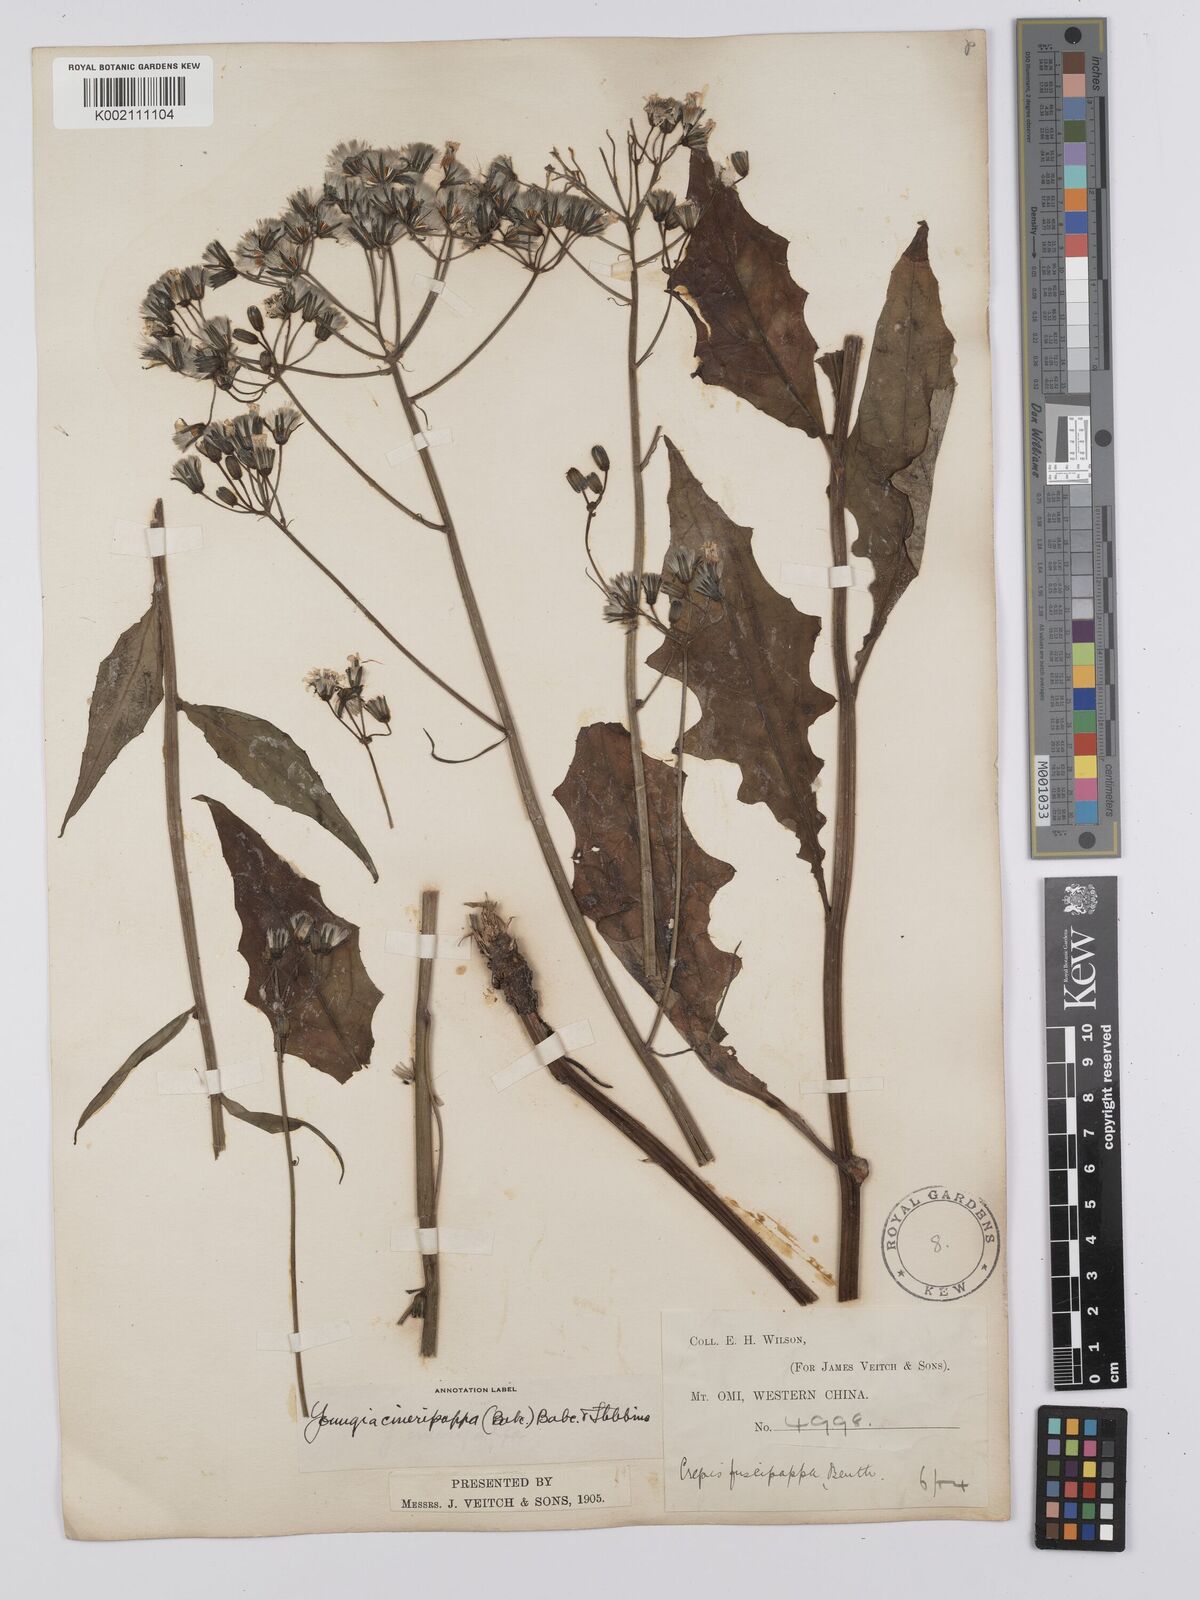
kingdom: Plantae
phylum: Tracheophyta
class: Magnoliopsida
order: Asterales
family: Asteraceae
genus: Youngia
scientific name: Youngia cineripappa
